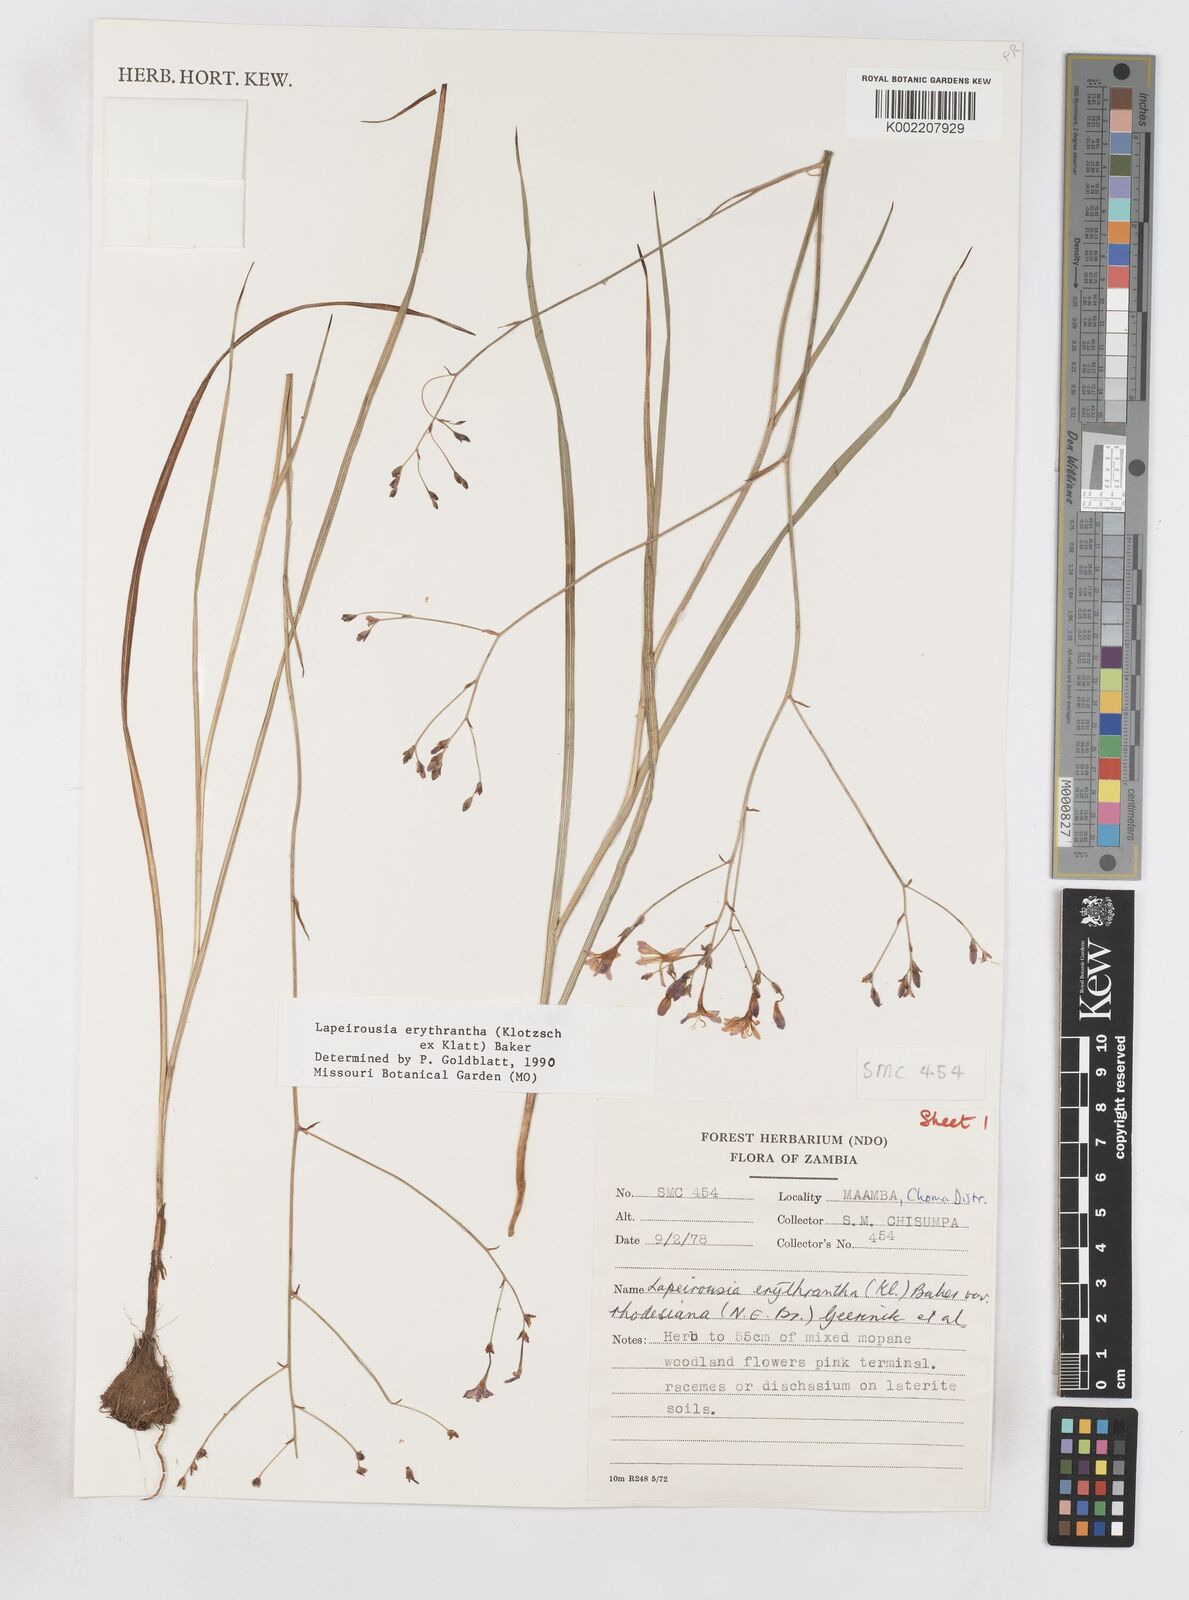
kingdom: Plantae
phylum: Tracheophyta
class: Liliopsida
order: Asparagales
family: Iridaceae
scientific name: Iridaceae
